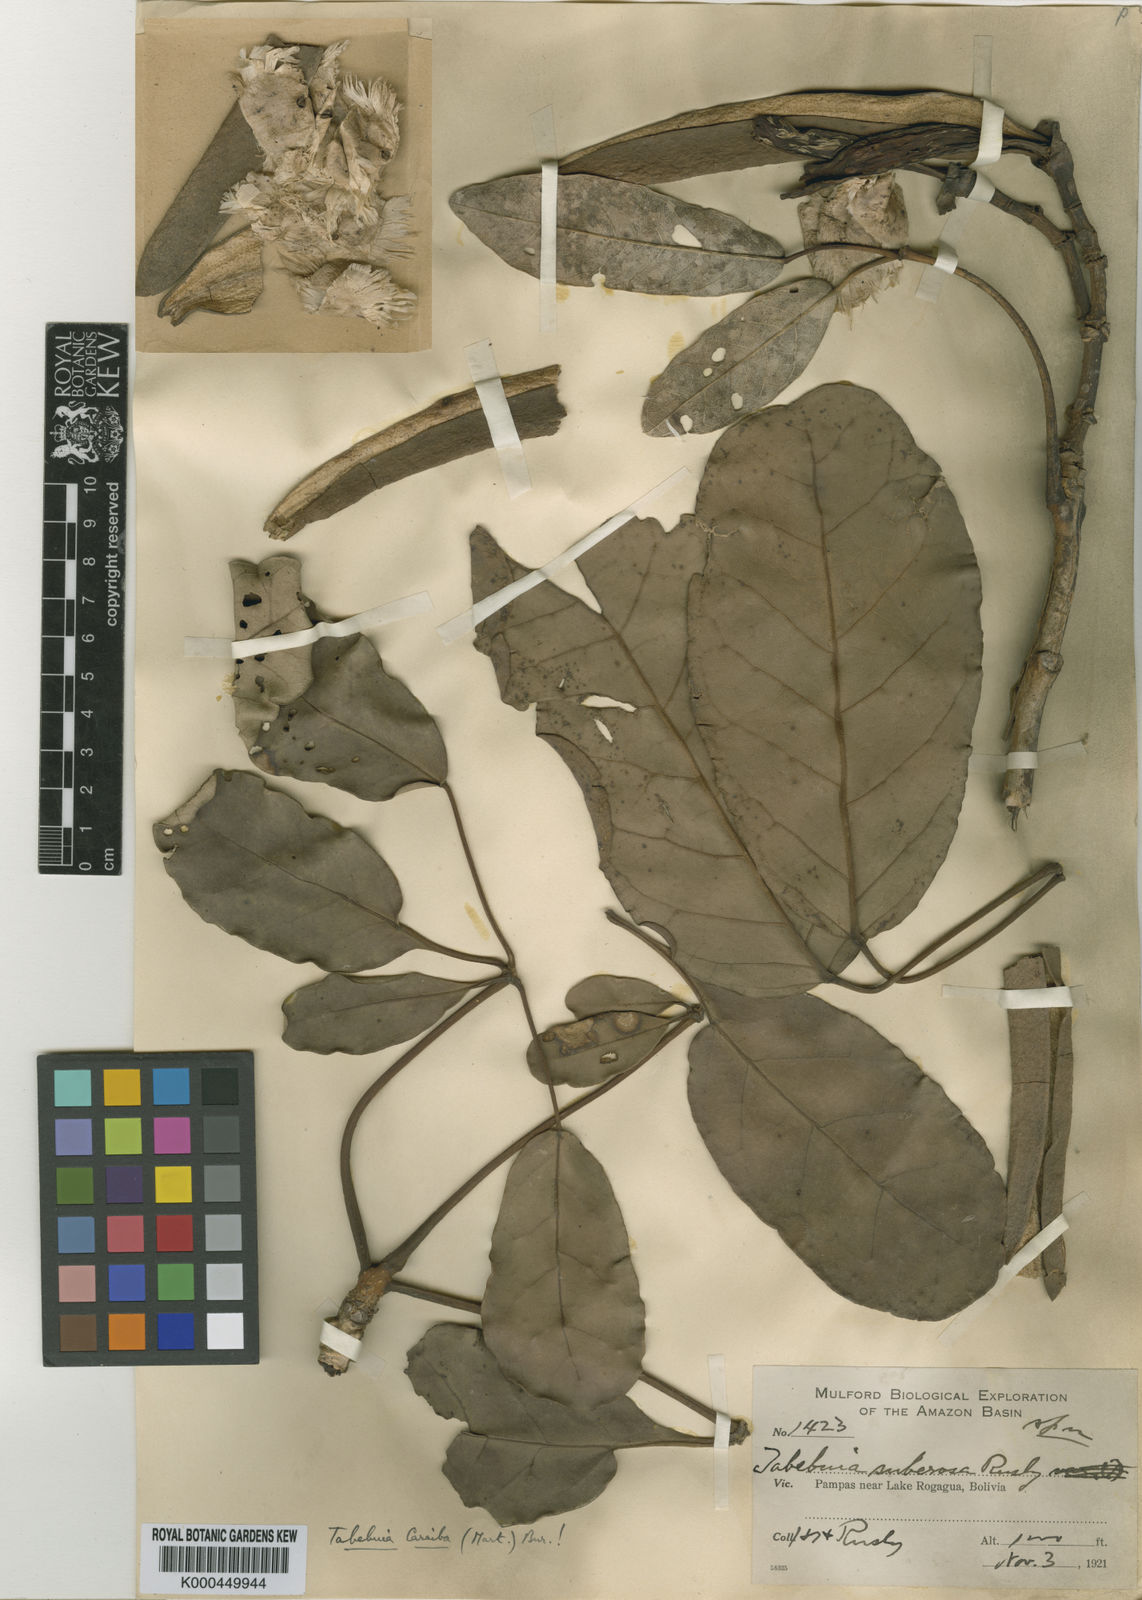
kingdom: Plantae
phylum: Tracheophyta
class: Magnoliopsida
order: Lamiales
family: Bignoniaceae
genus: Tabebuia
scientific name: Tabebuia aurea
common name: Caribbean trumpet-tree
